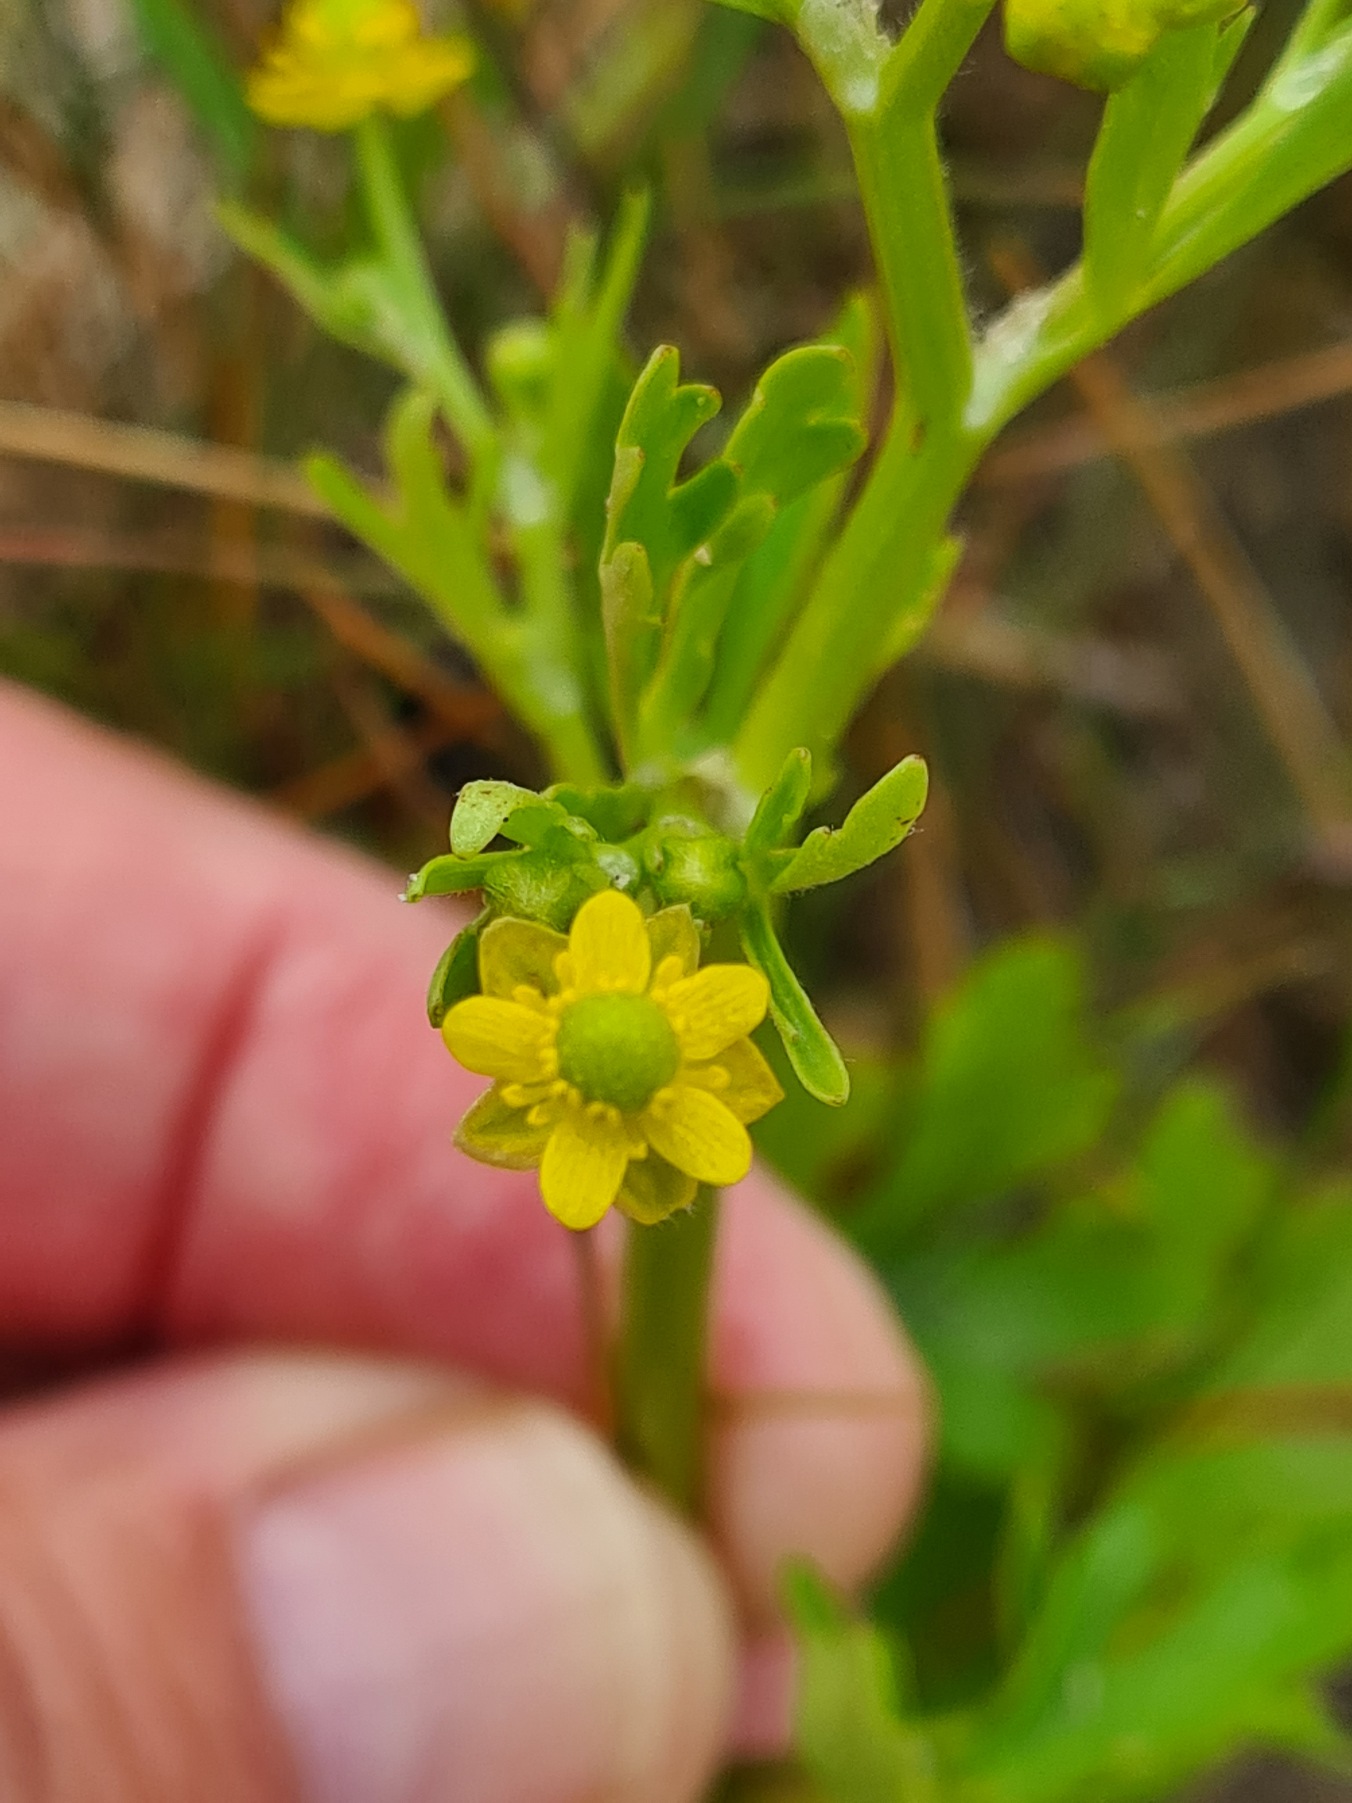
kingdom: Plantae
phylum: Tracheophyta
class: Magnoliopsida
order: Ranunculales
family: Ranunculaceae
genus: Ranunculus
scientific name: Ranunculus sceleratus
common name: Tigger-ranunkel
